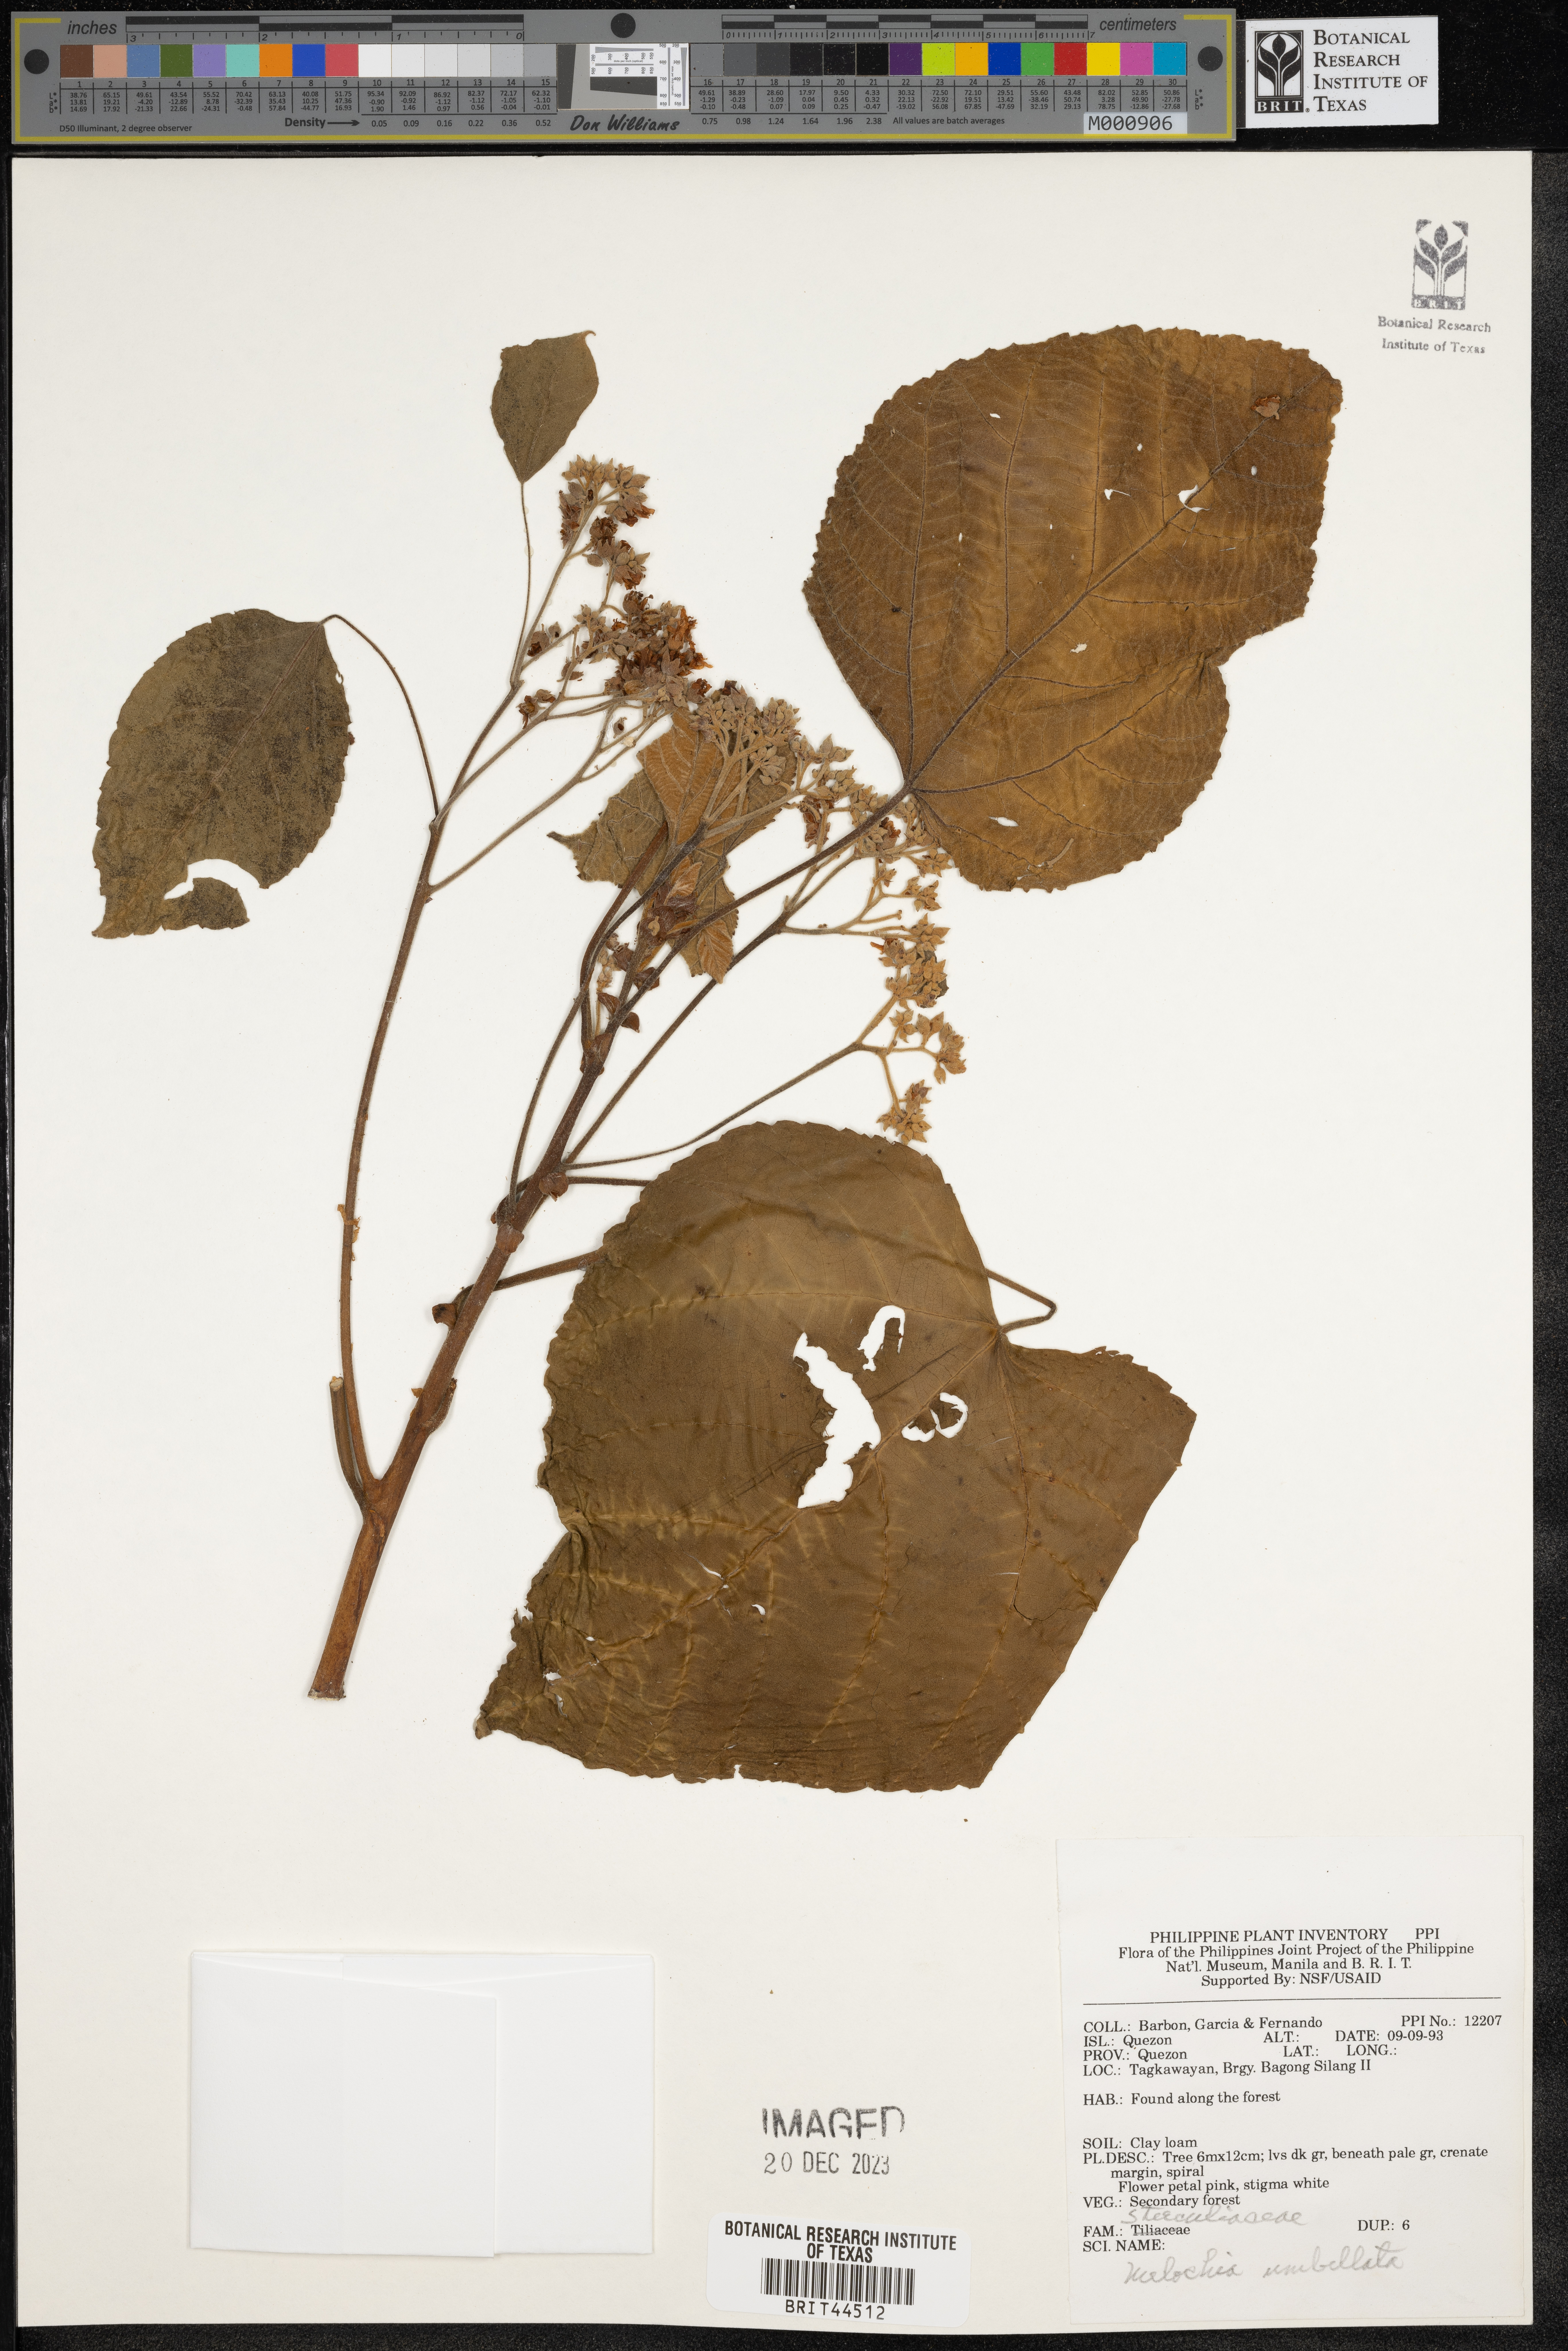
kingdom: Plantae
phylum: Tracheophyta
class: Magnoliopsida
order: Malvales
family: Malvaceae
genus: Melochia
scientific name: Melochia umbellata
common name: Gunpowder tree
